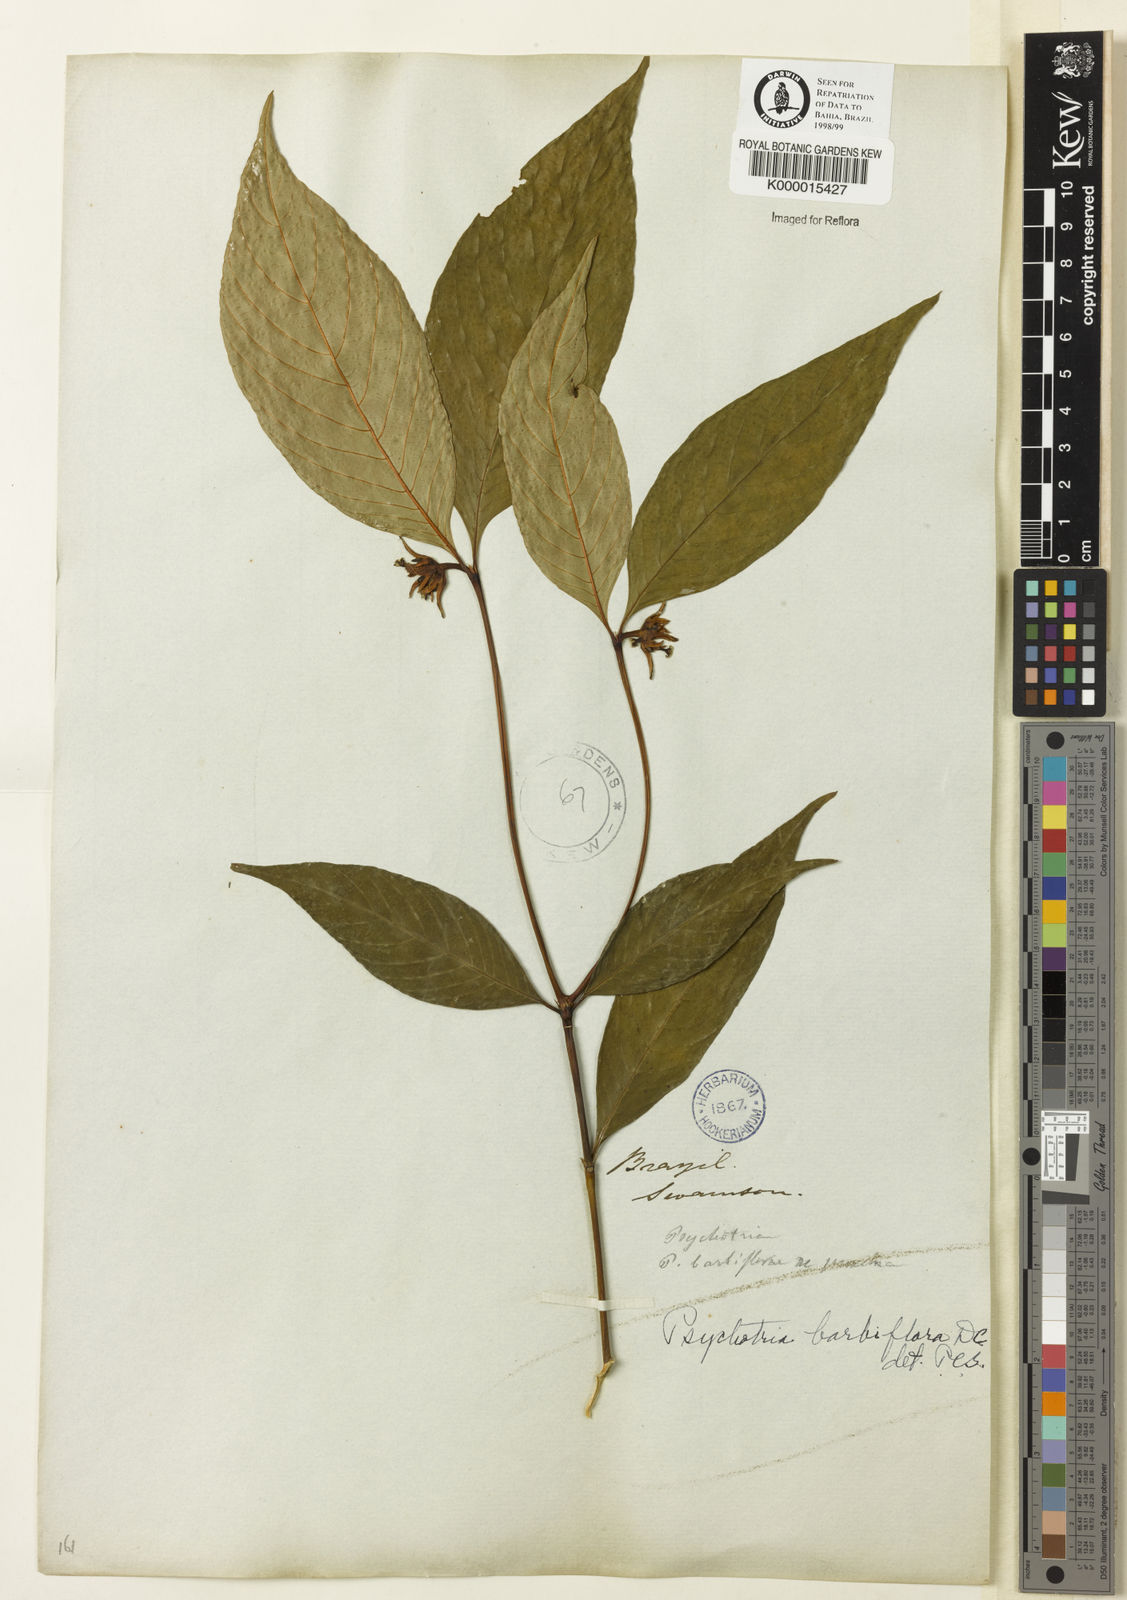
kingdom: Plantae
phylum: Tracheophyta
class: Magnoliopsida
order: Gentianales
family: Rubiaceae
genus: Palicourea
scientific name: Palicourea hoffmannseggiana
